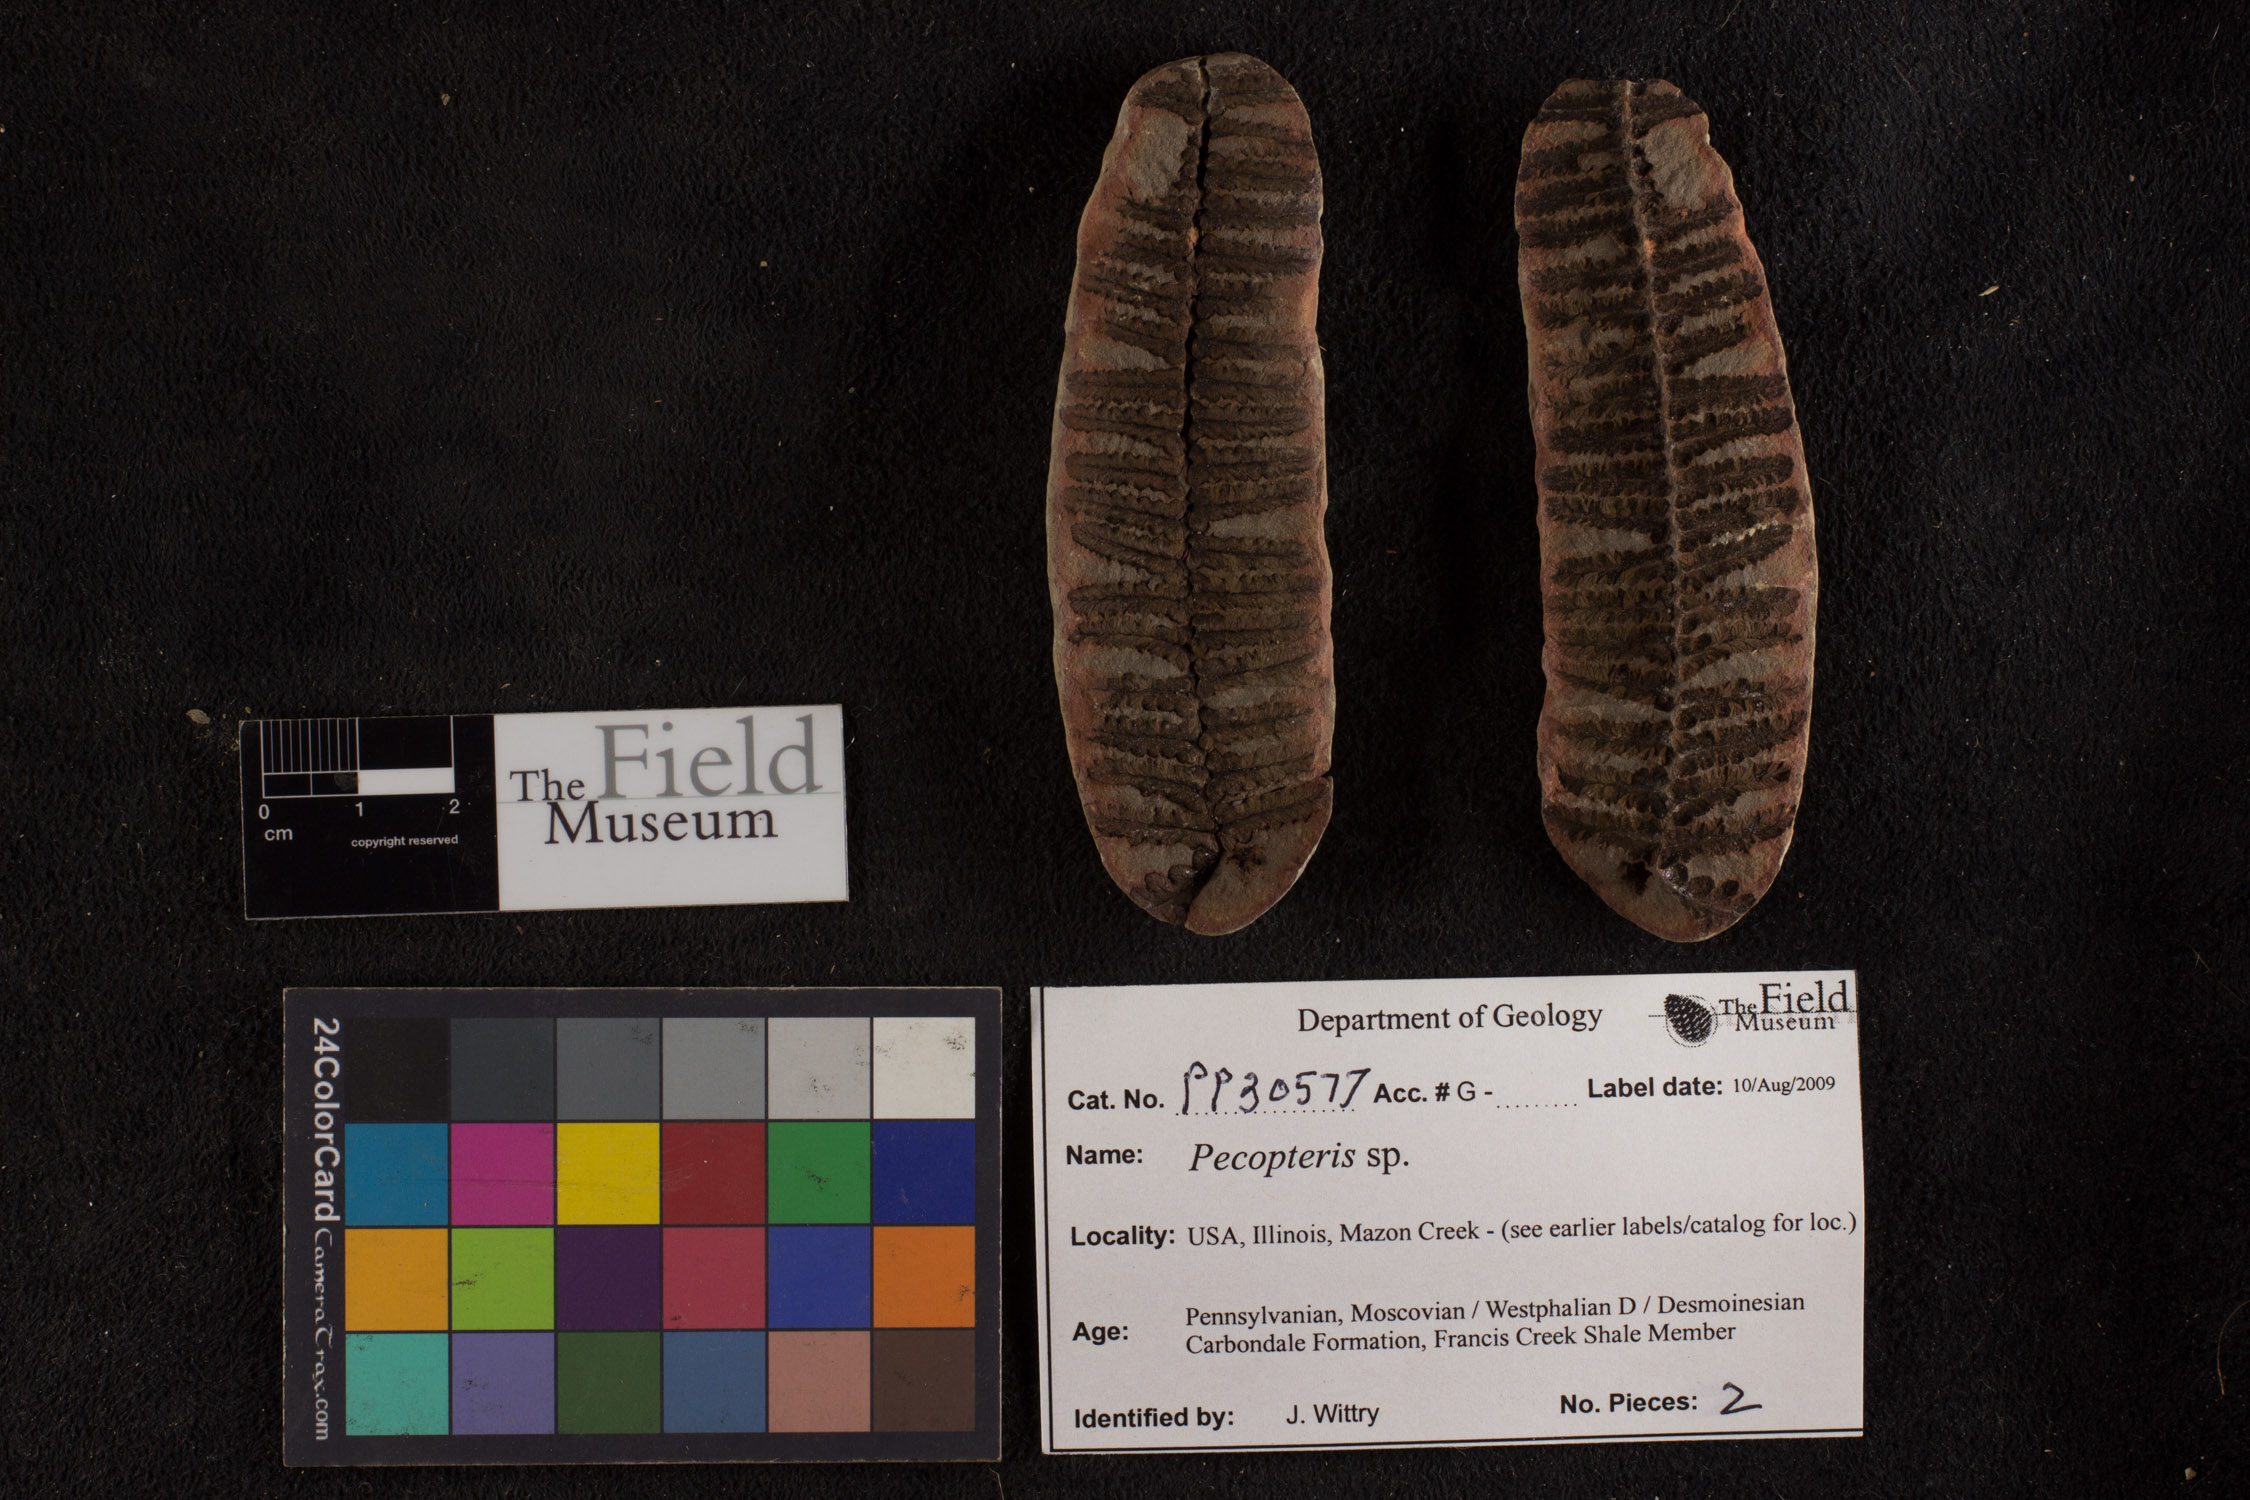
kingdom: Plantae
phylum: Tracheophyta
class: Polypodiopsida
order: Marattiales
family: Asterothecaceae
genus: Pecopteris
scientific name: Pecopteris
